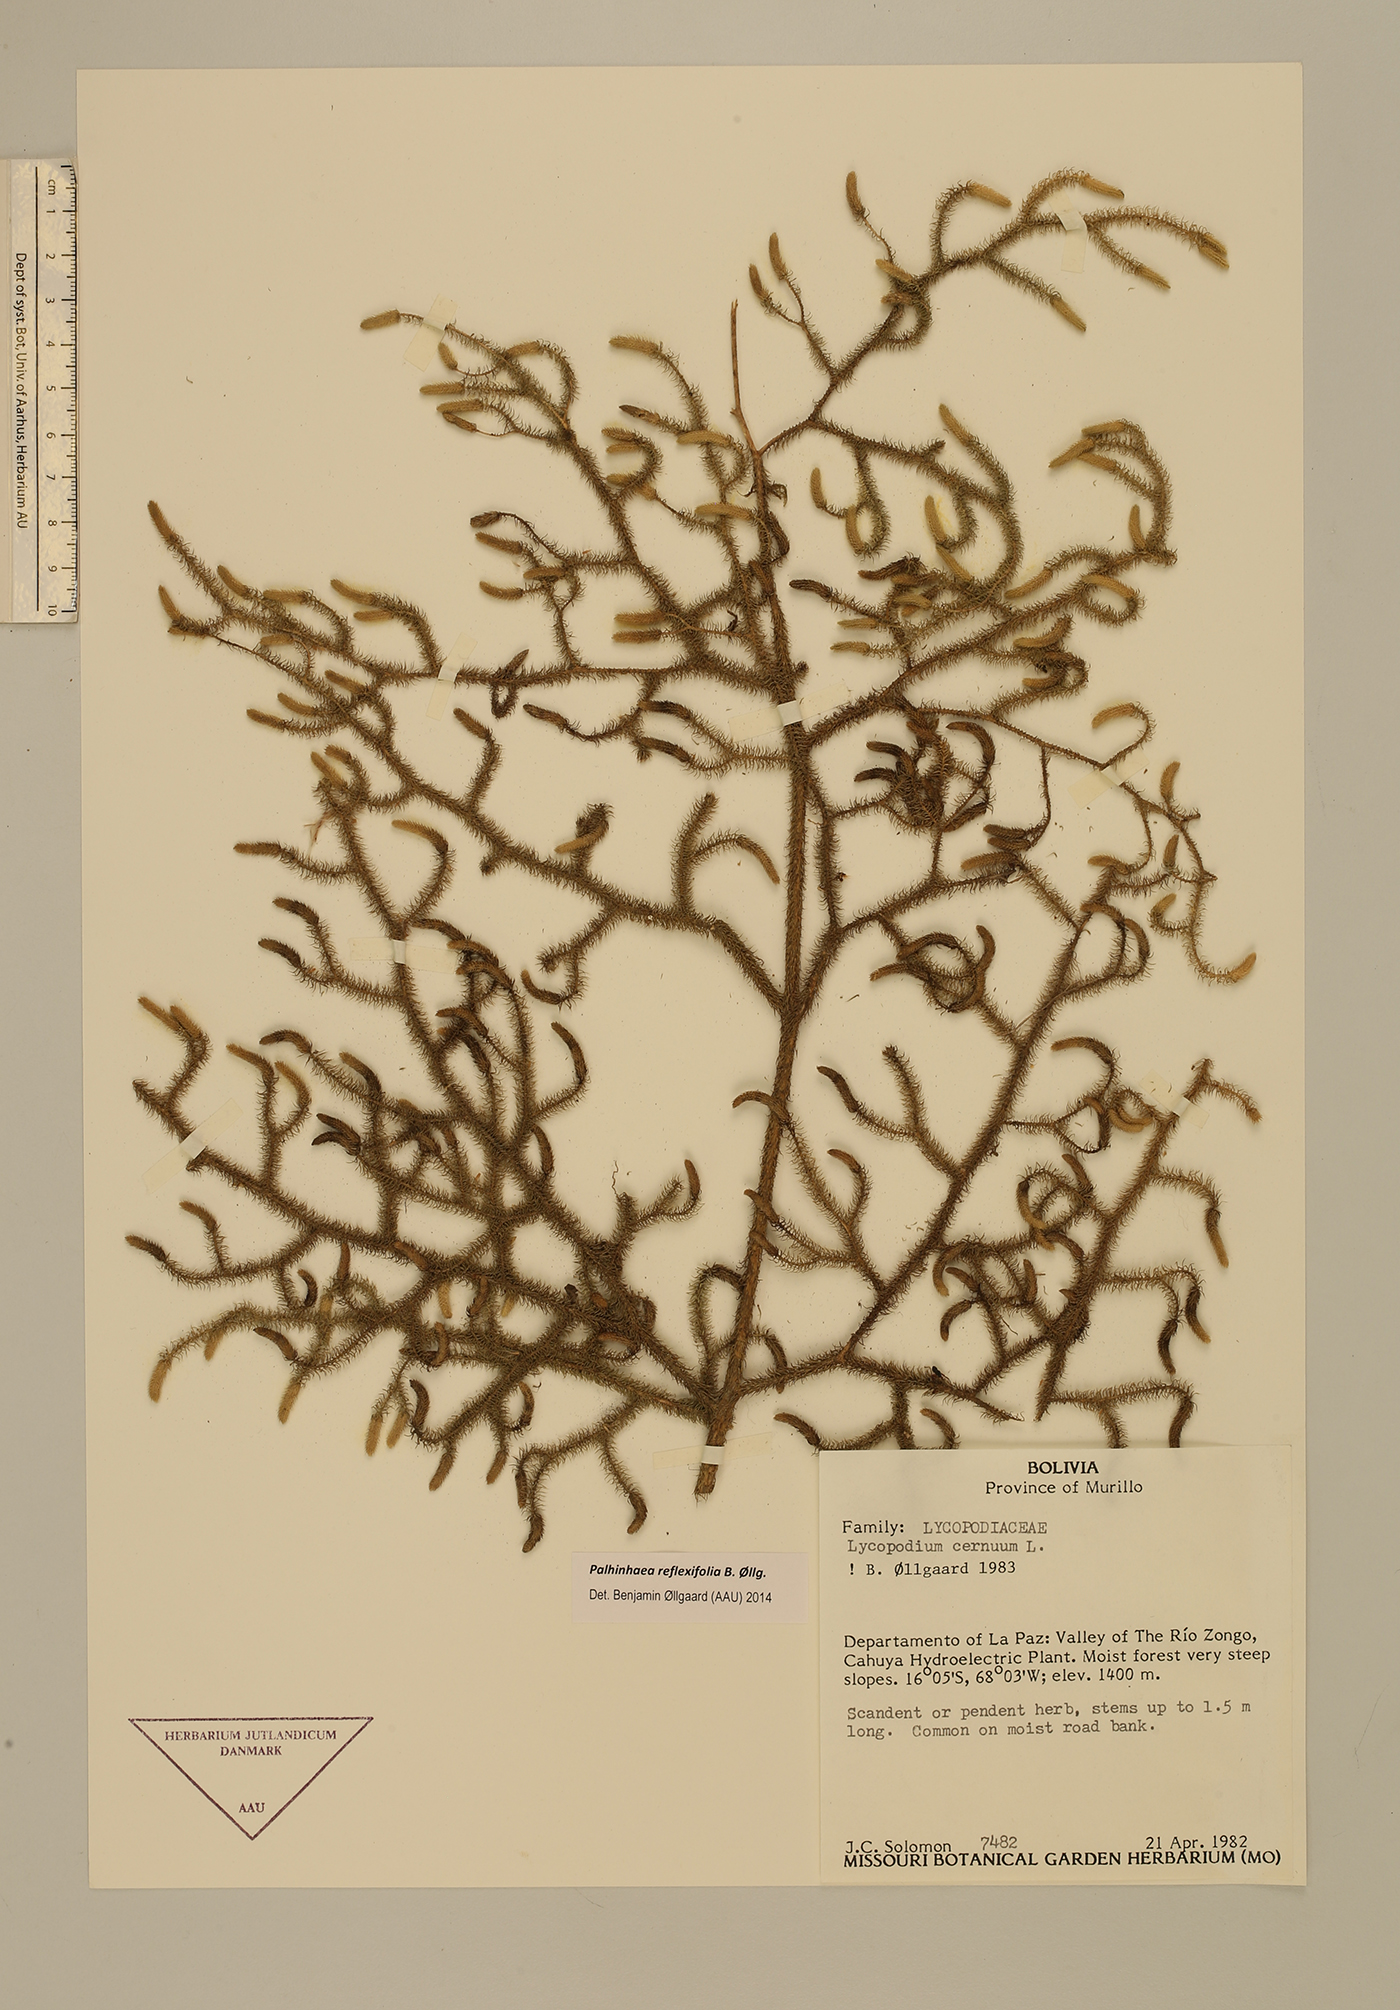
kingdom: Plantae
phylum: Tracheophyta
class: Lycopodiopsida
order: Lycopodiales
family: Lycopodiaceae
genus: Palhinhaea
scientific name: Palhinhaea reflexifolia
